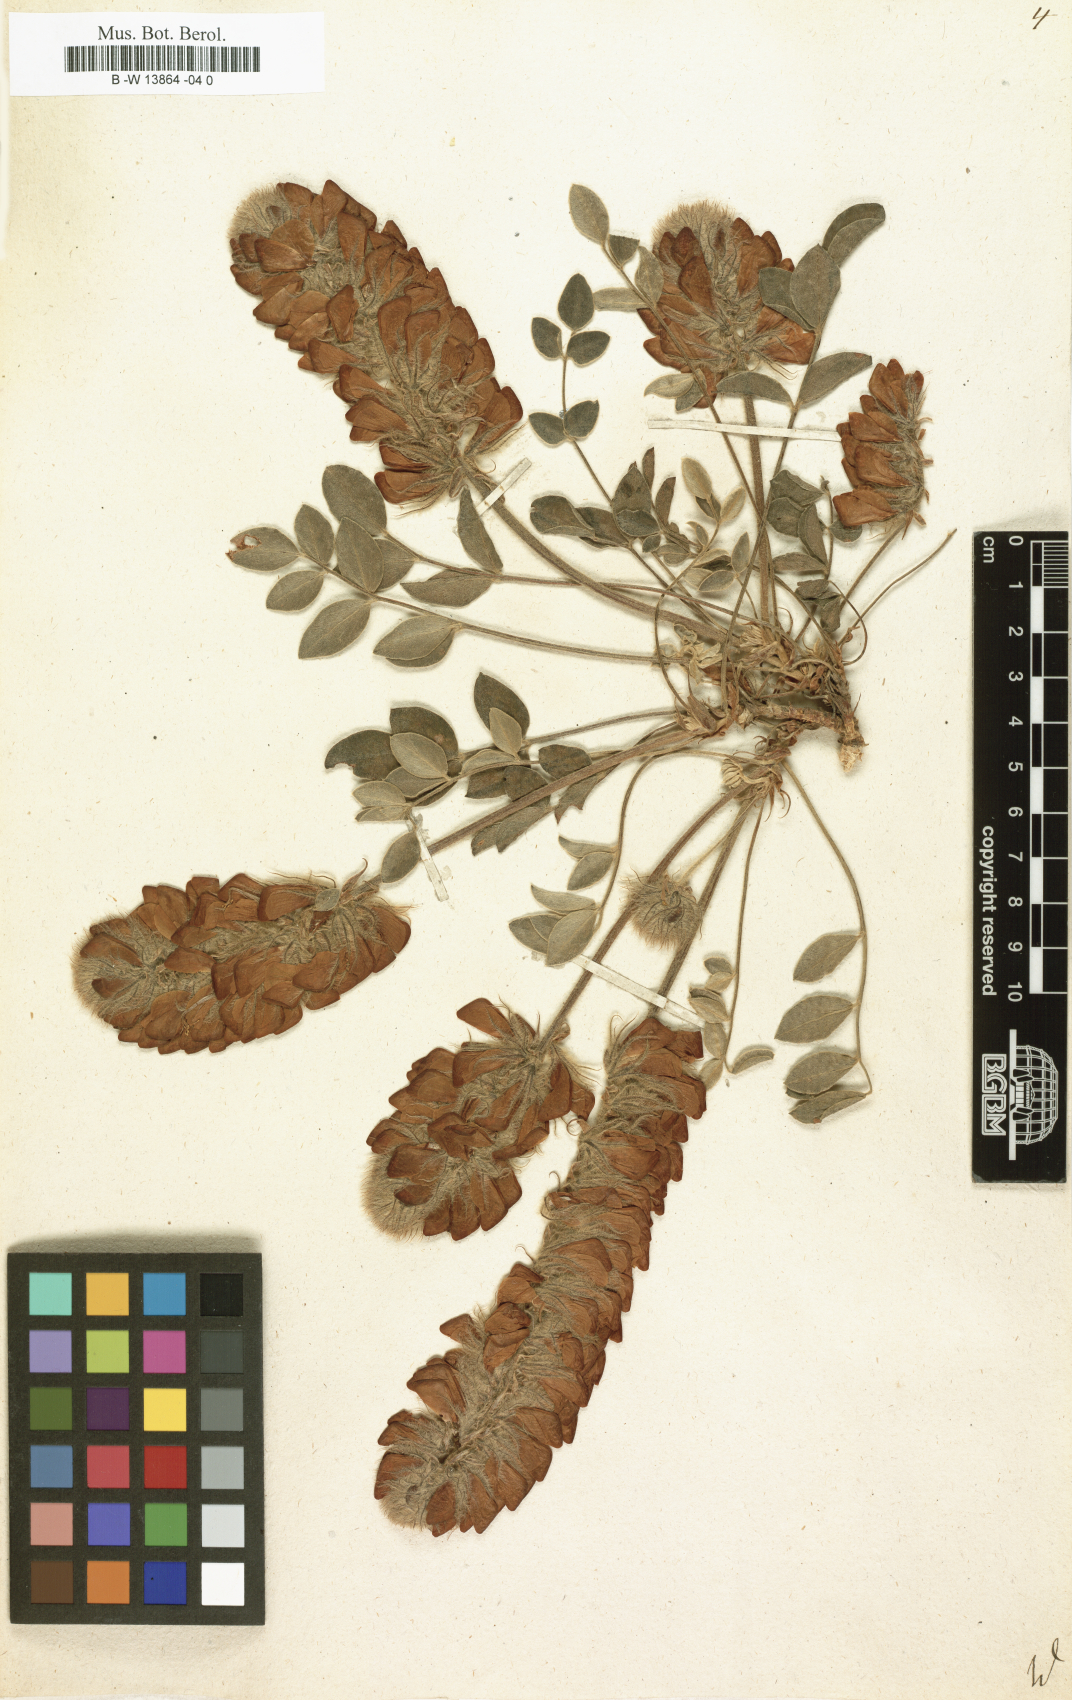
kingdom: Plantae
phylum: Tracheophyta
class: Magnoliopsida
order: Fabales
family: Fabaceae
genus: Hedysarum
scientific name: Hedysarum
